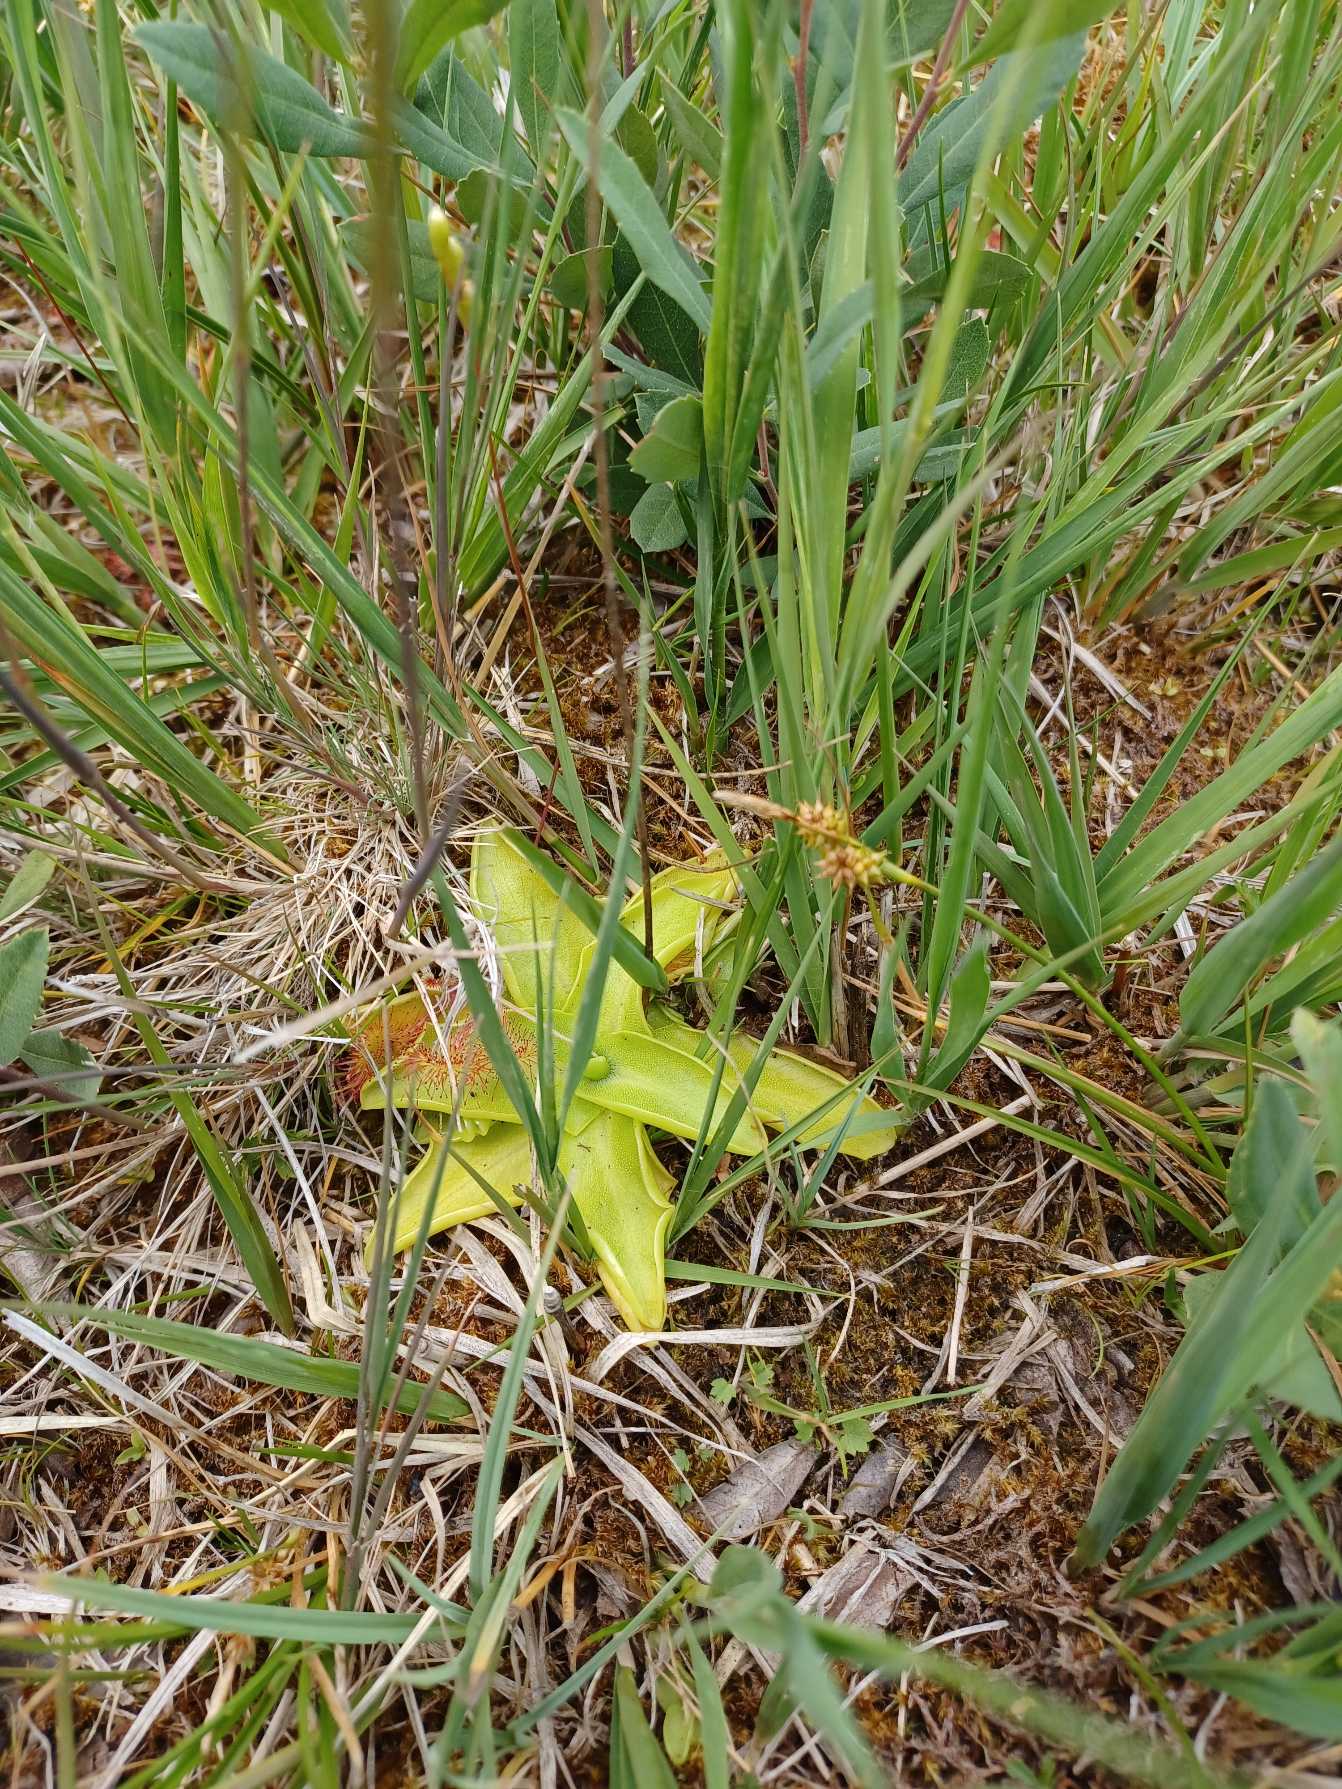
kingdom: Plantae
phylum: Tracheophyta
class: Magnoliopsida
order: Lamiales
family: Lentibulariaceae
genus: Pinguicula
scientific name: Pinguicula vulgaris
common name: Vibefedt
